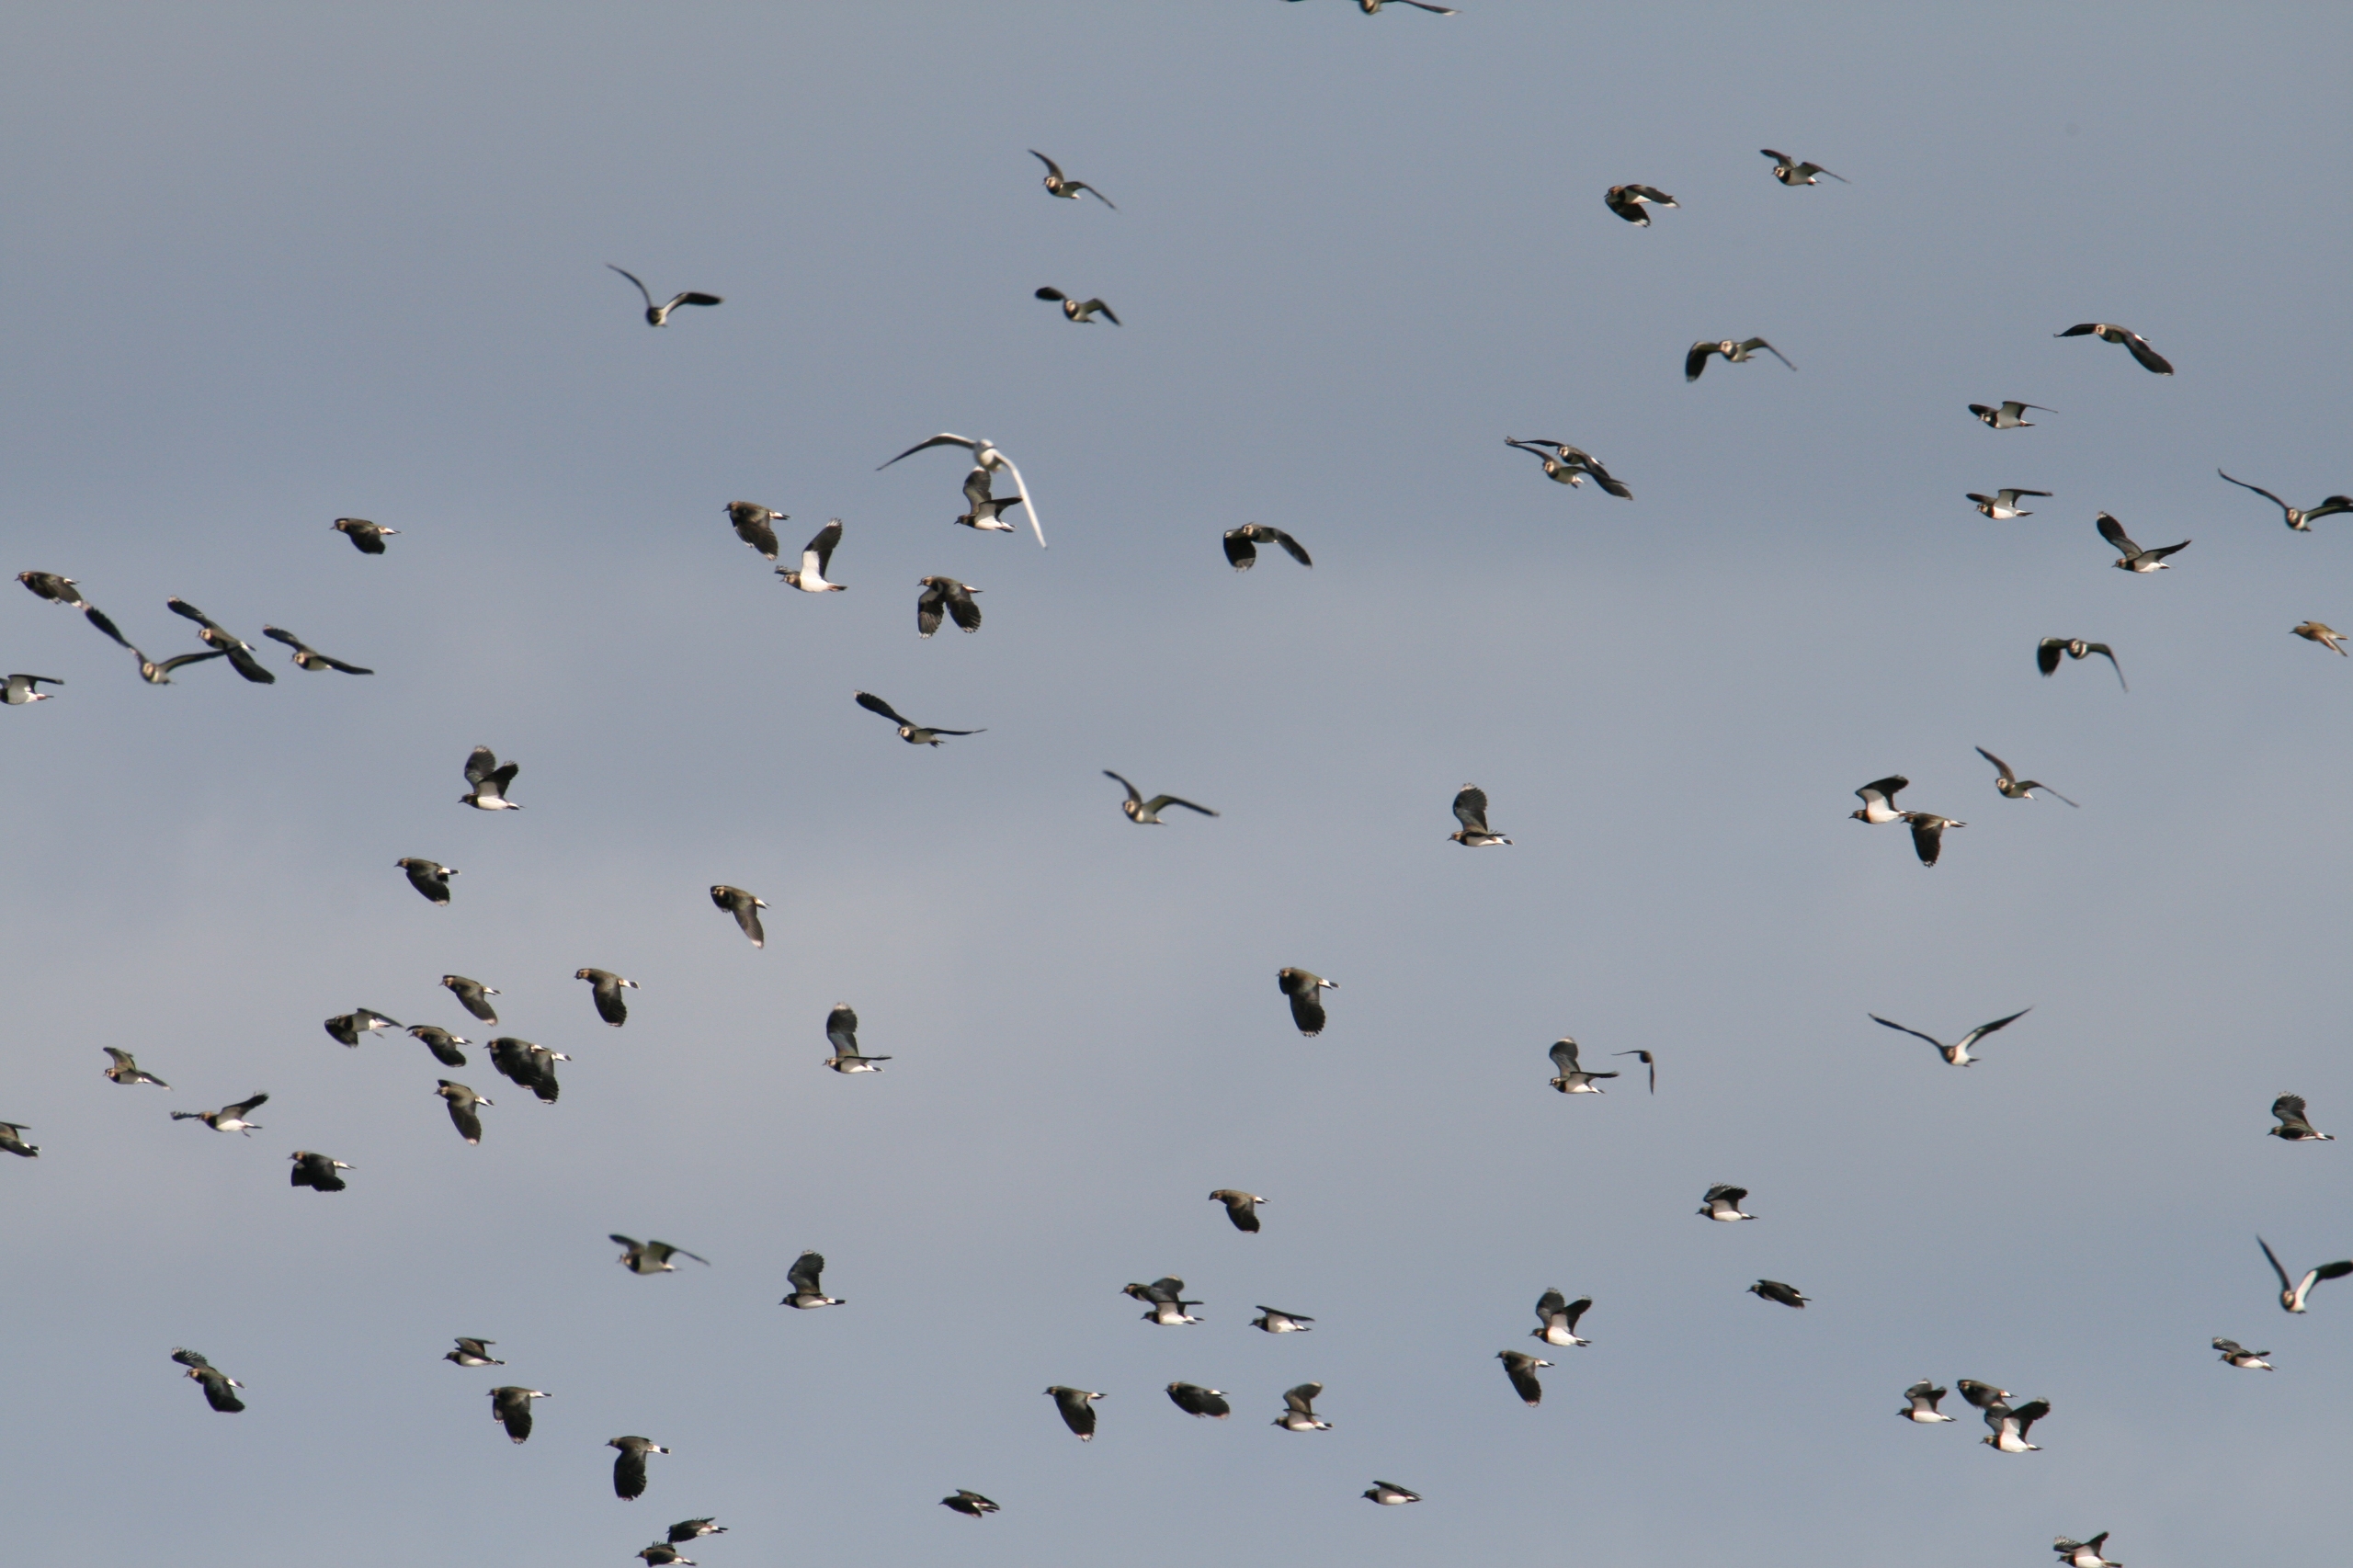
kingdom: Animalia
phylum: Chordata
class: Aves
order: Charadriiformes
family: Charadriidae
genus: Vanellus
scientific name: Vanellus vanellus
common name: Vibe
